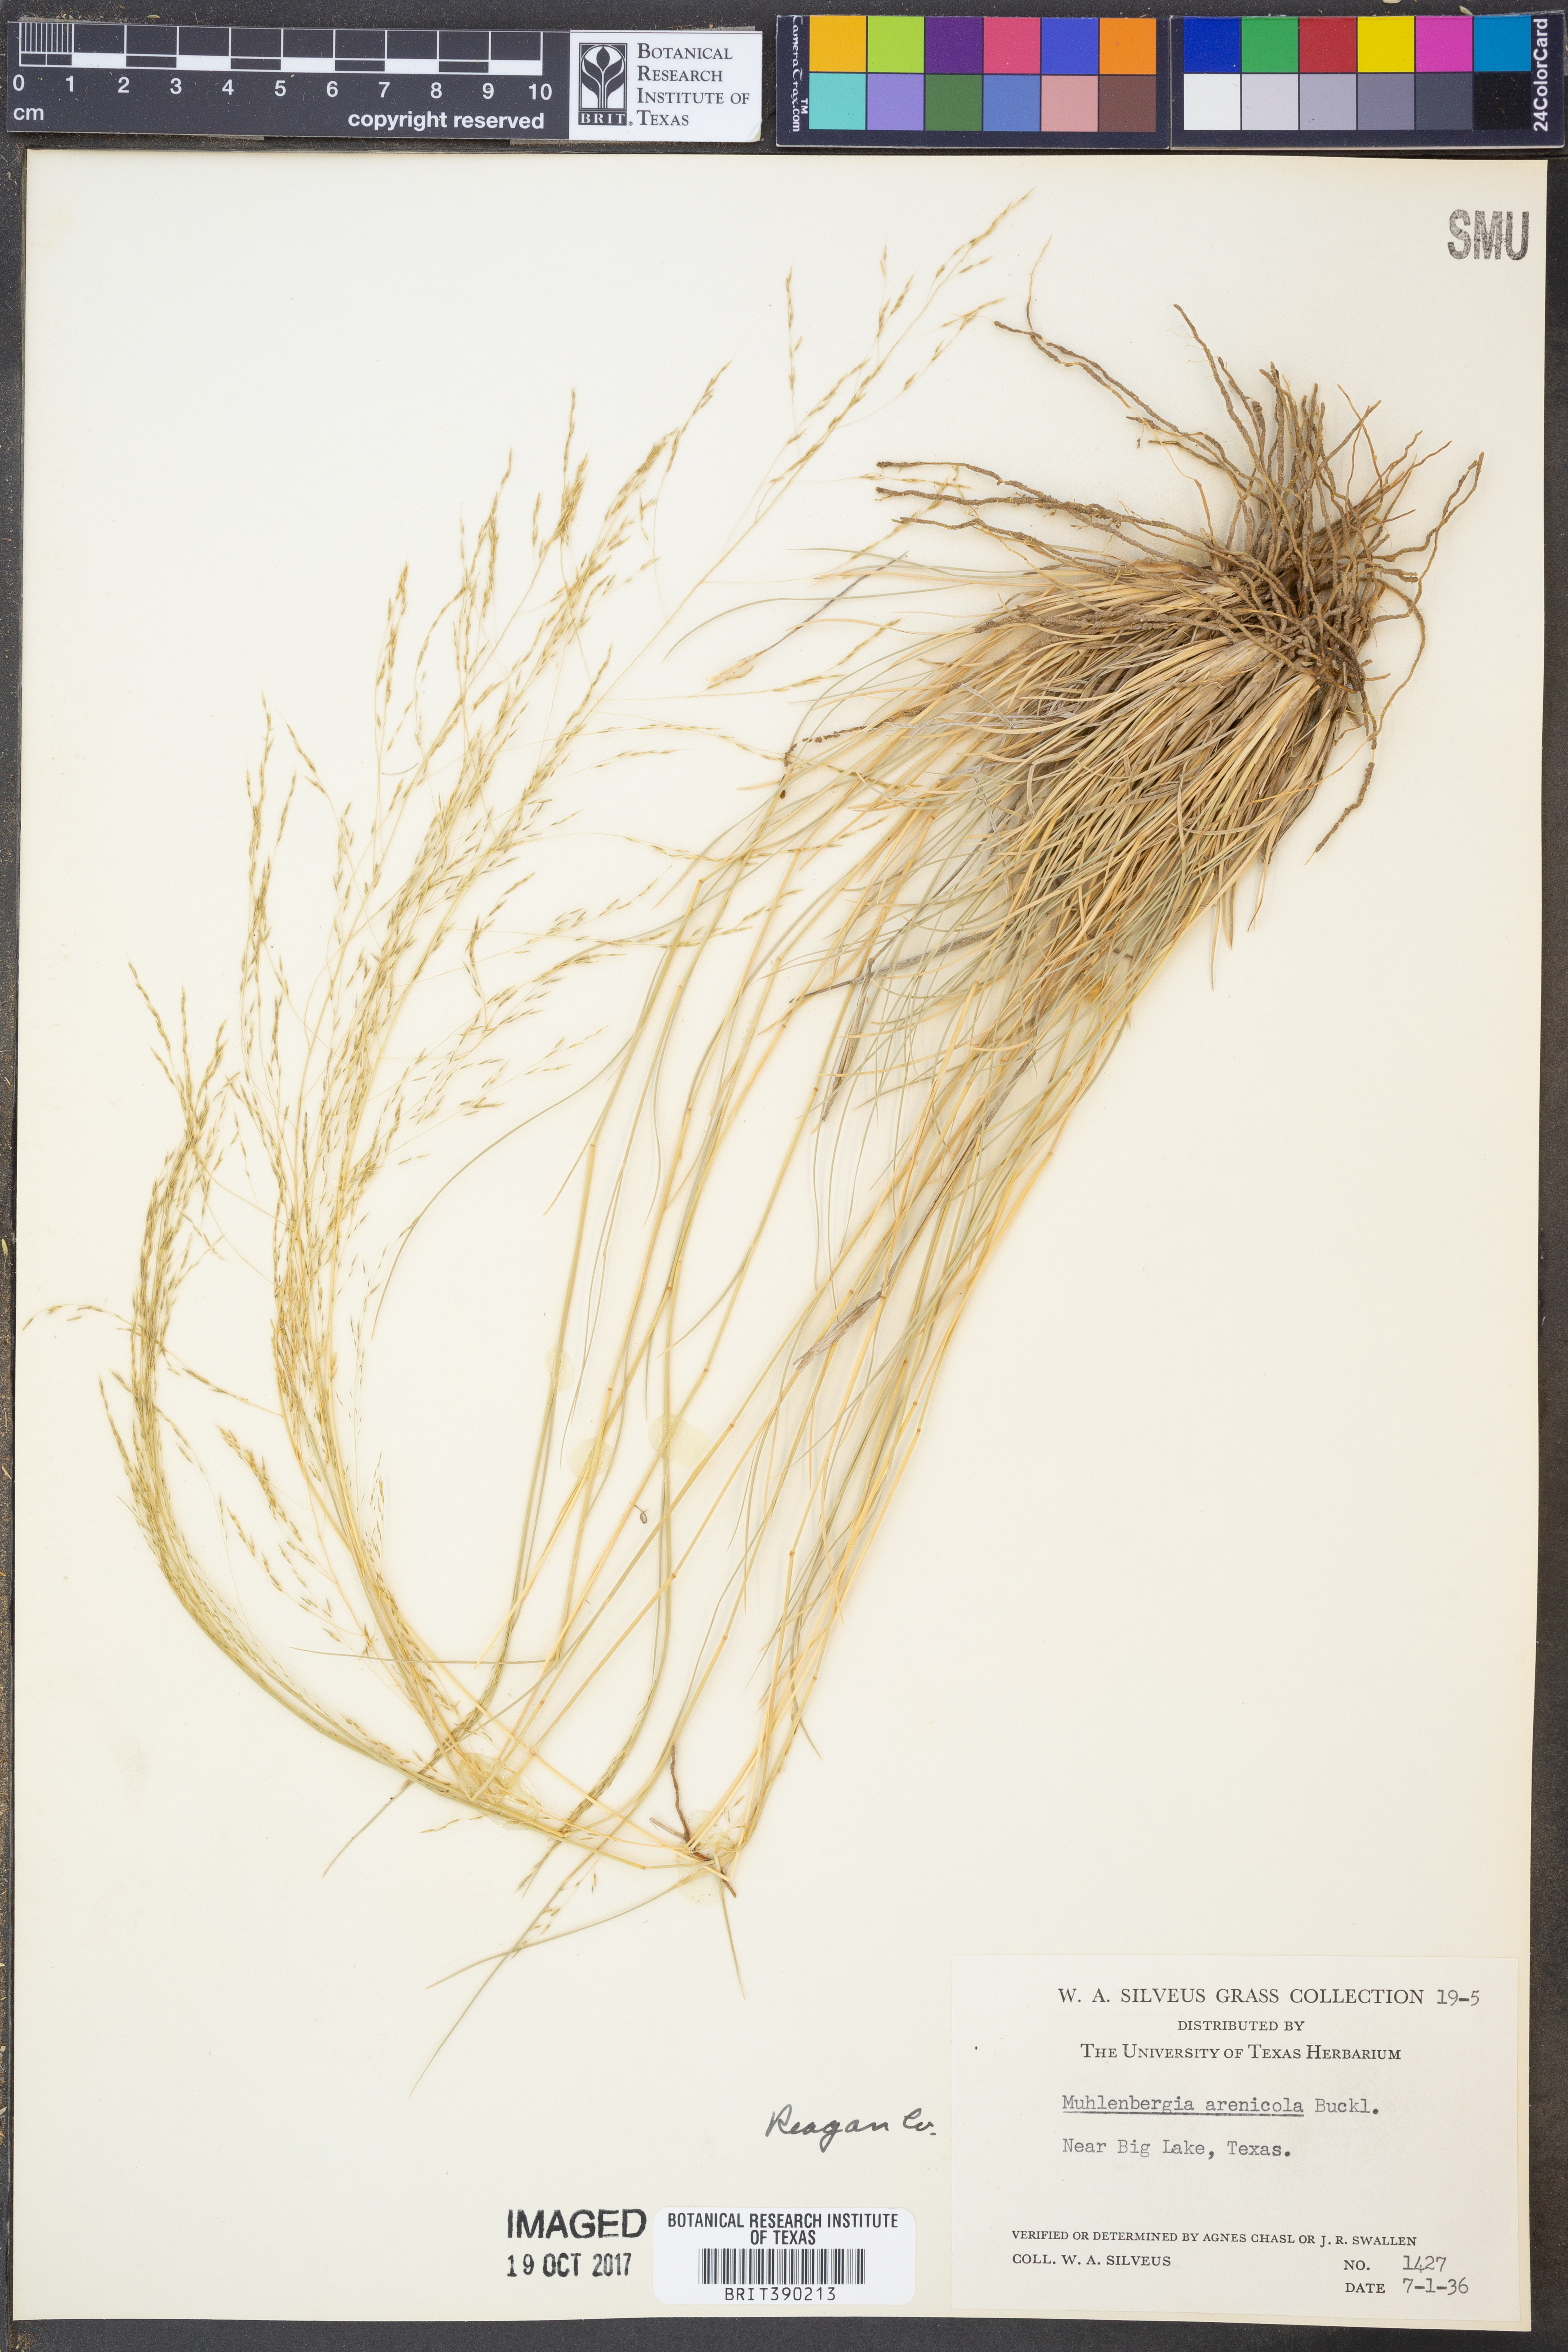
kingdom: Plantae
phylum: Tracheophyta
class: Liliopsida
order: Poales
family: Poaceae
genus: Muhlenbergia
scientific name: Muhlenbergia arenicola
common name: Sand muhly
